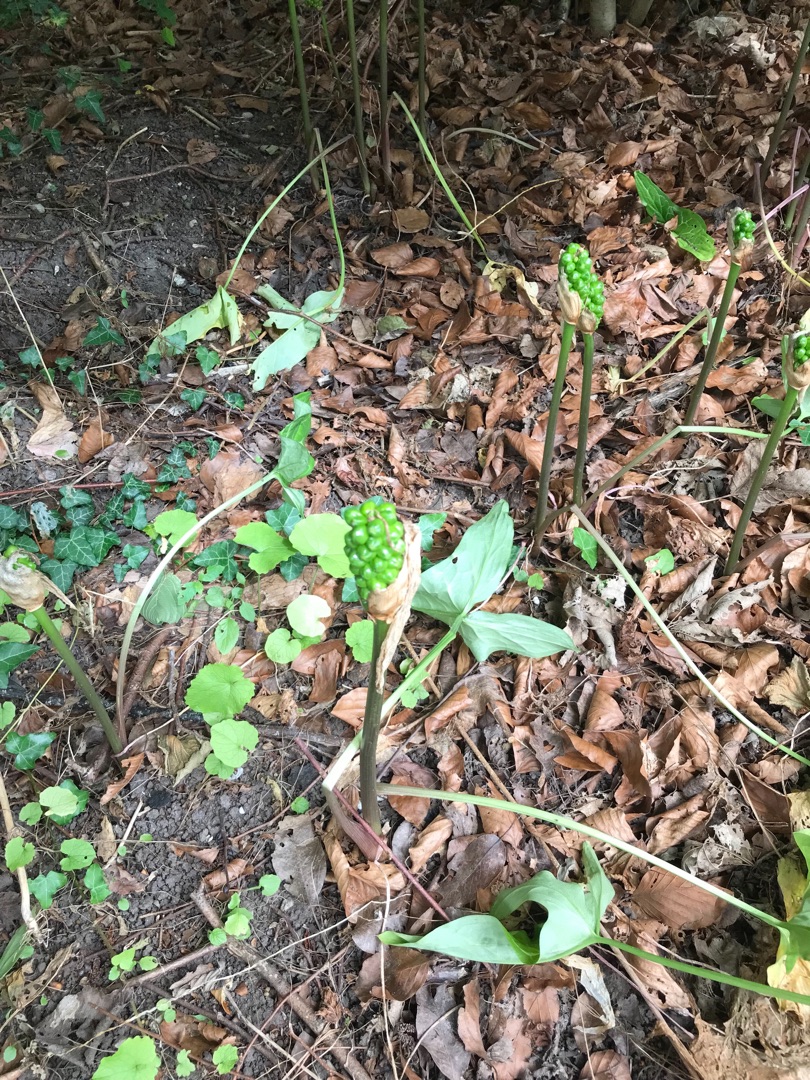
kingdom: Plantae
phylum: Tracheophyta
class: Liliopsida
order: Alismatales
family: Araceae
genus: Arum
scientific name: Arum italicum
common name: Italiensk arum
